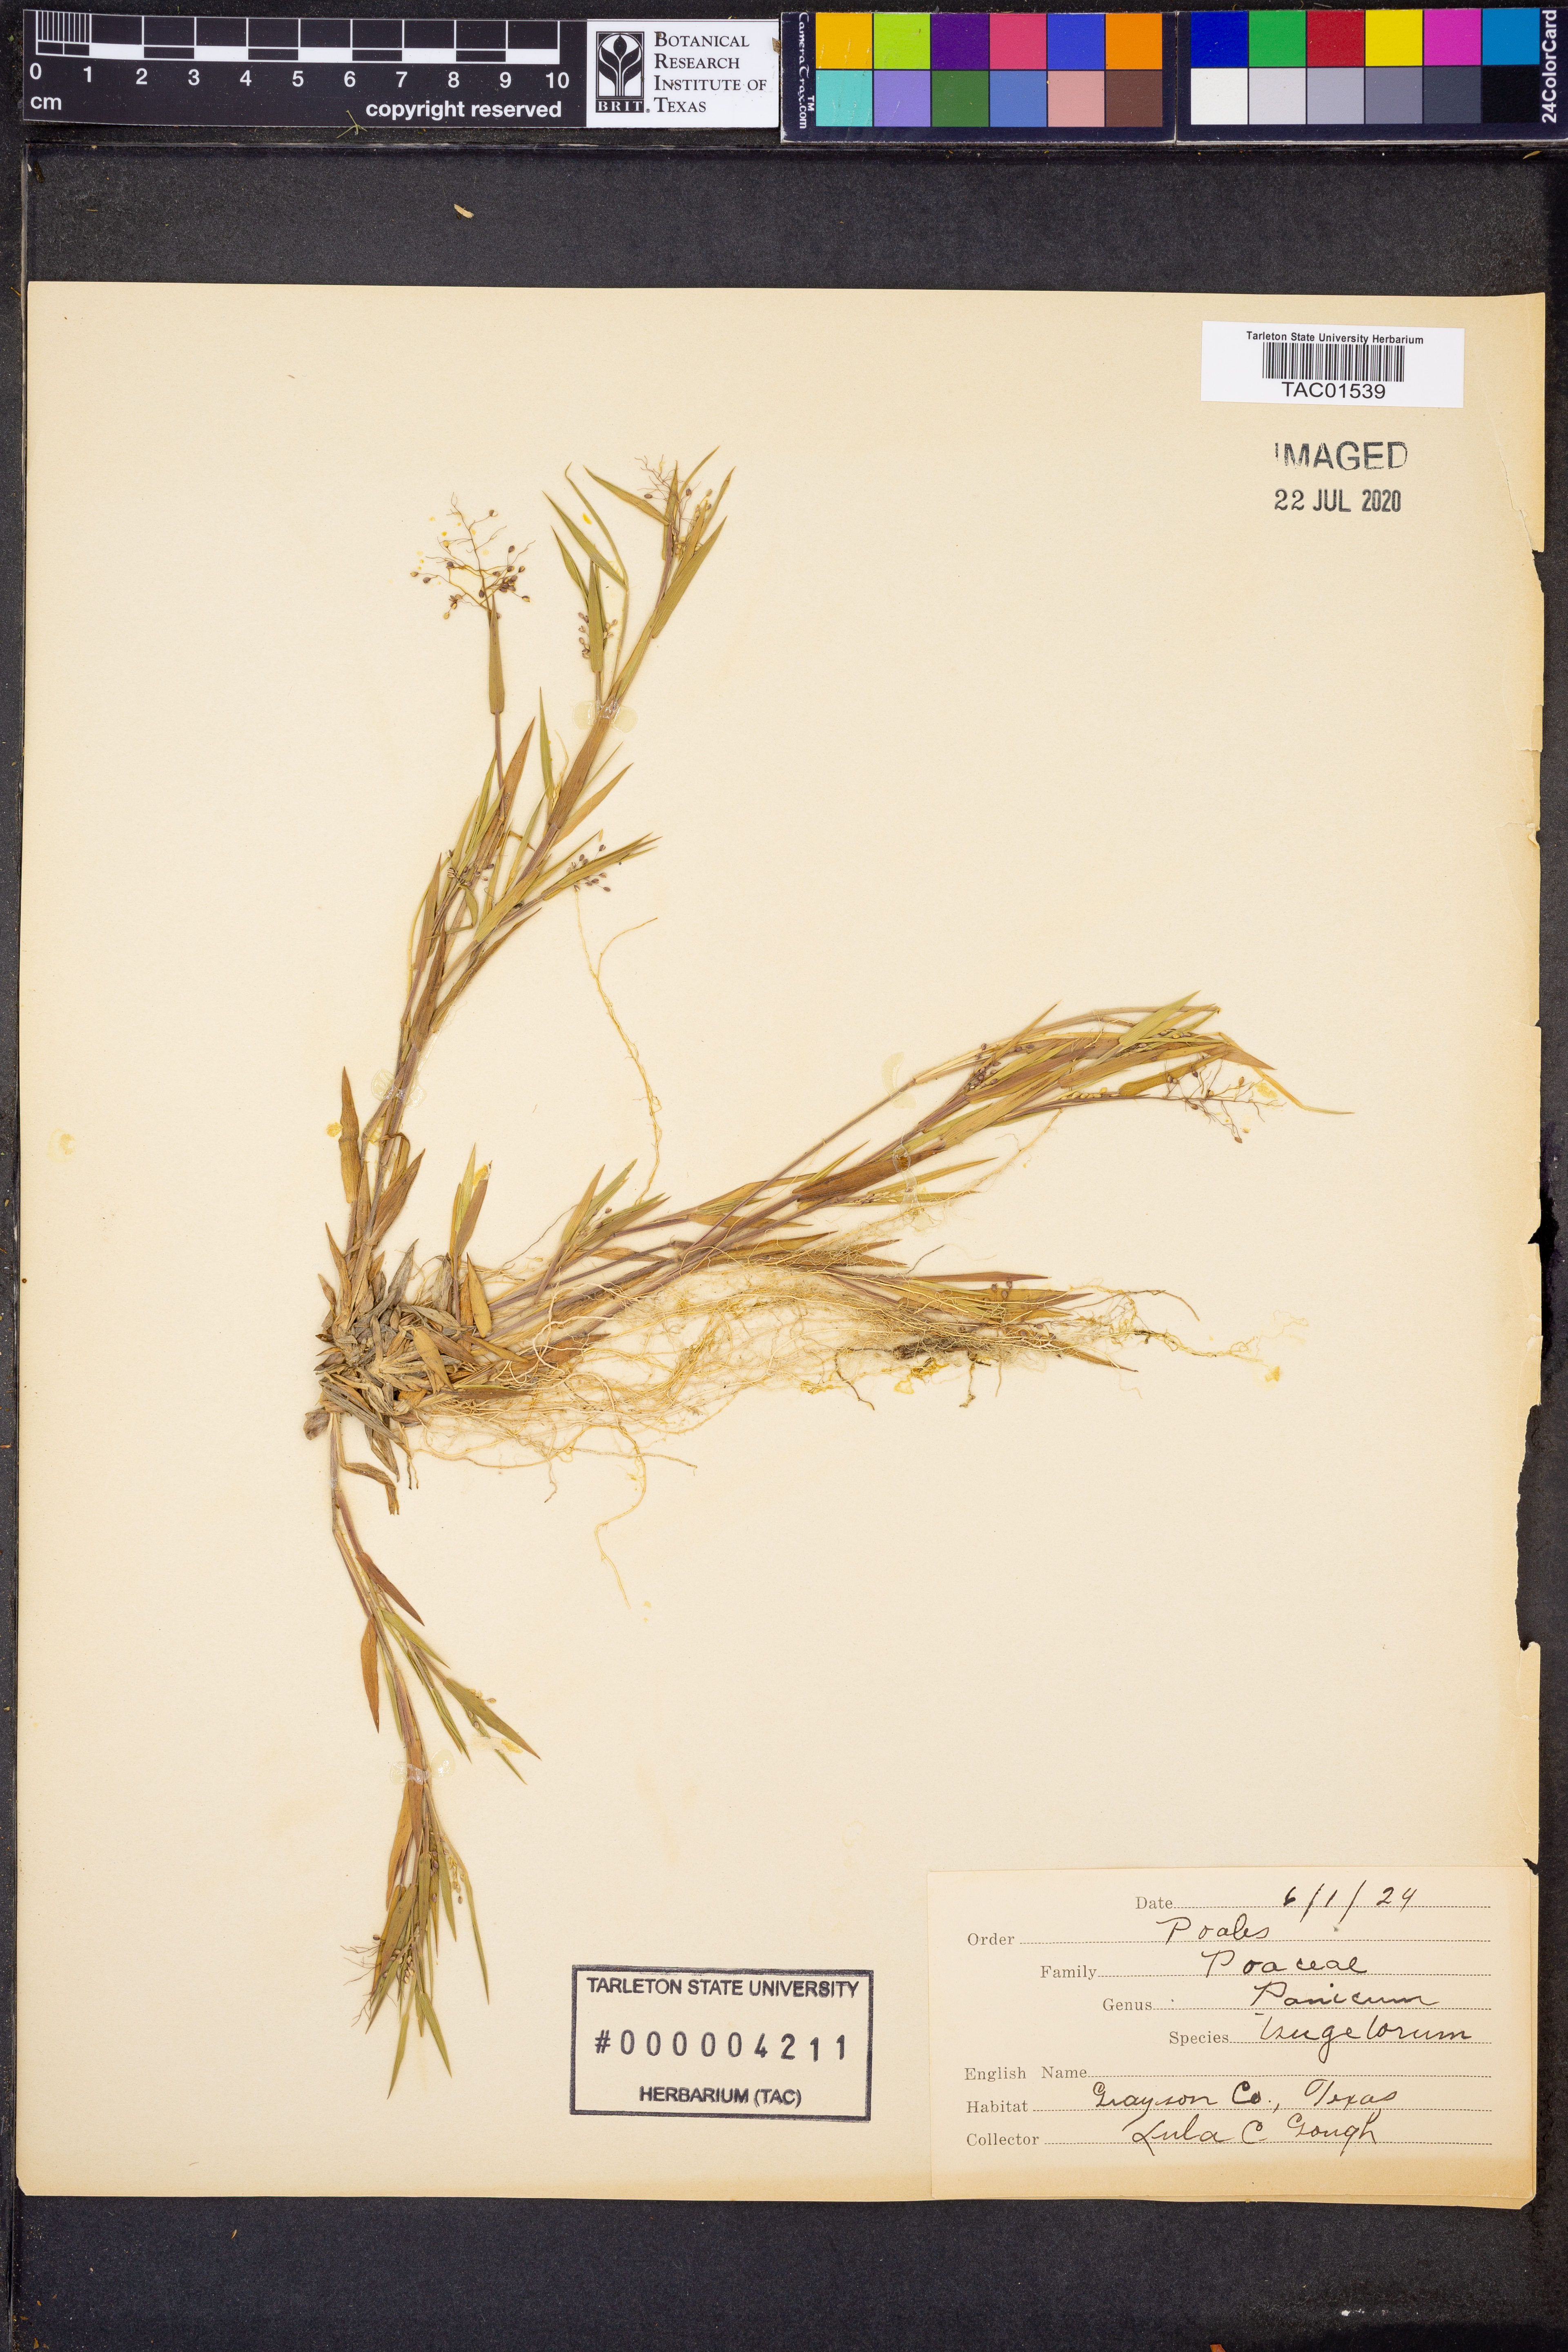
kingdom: Plantae
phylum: Tracheophyta
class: Liliopsida
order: Poales
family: Poaceae
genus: Dichanthelium
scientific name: Dichanthelium columbianum
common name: Hemlock panic grass
